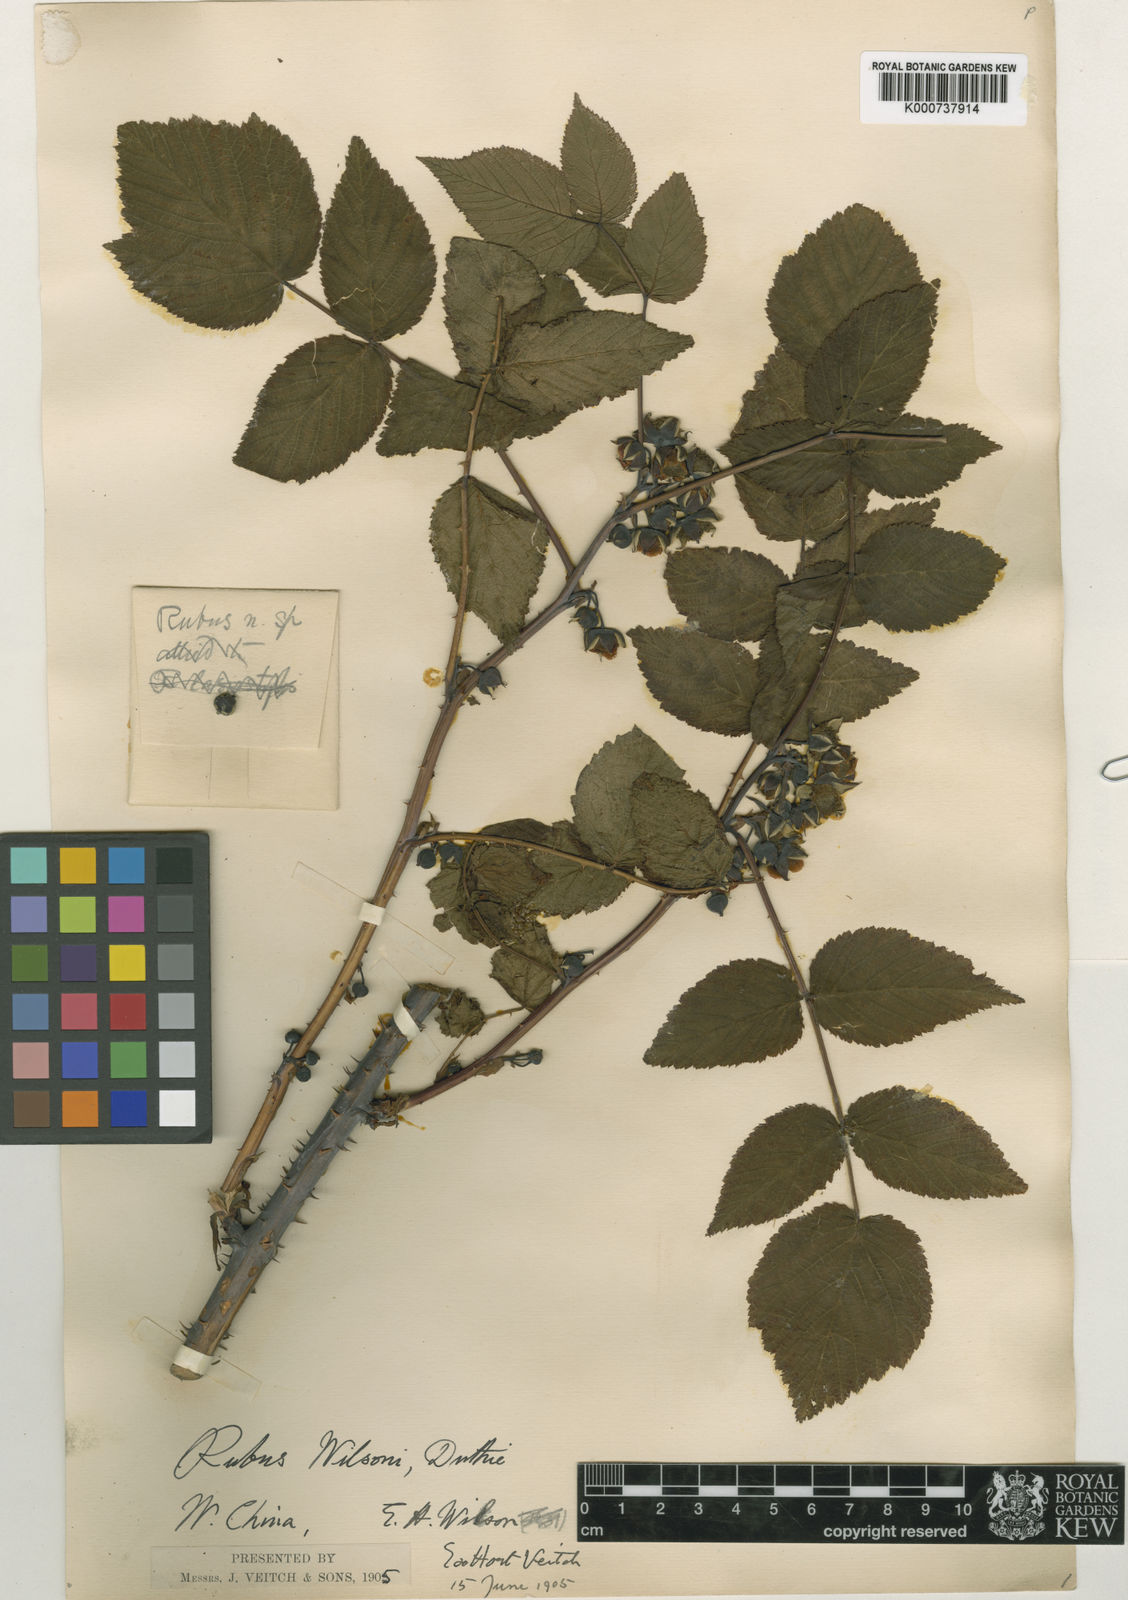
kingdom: Plantae
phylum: Tracheophyta
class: Magnoliopsida
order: Rosales
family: Rosaceae
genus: Rubus
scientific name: Rubus wilsonii
